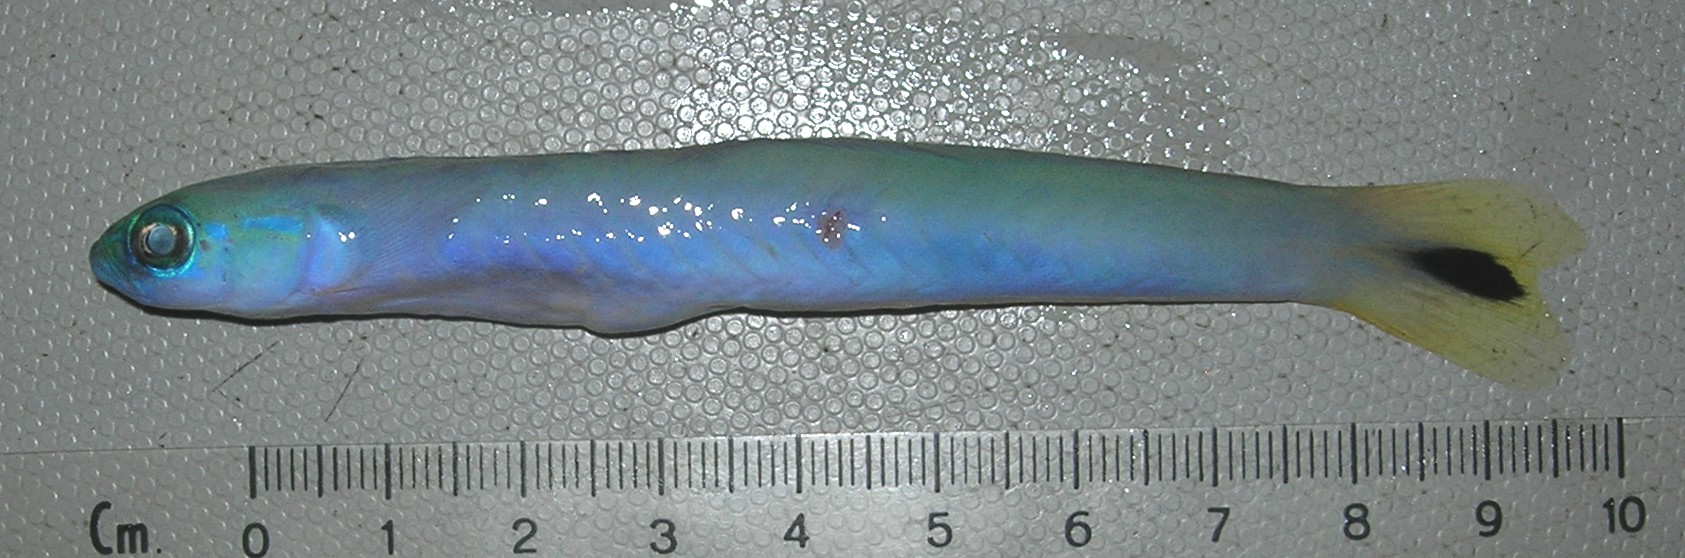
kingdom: Animalia
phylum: Chordata
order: Perciformes
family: Microdesmidae
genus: Ptereleotris
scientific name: Ptereleotris heteroptera
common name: Blacktail goby
